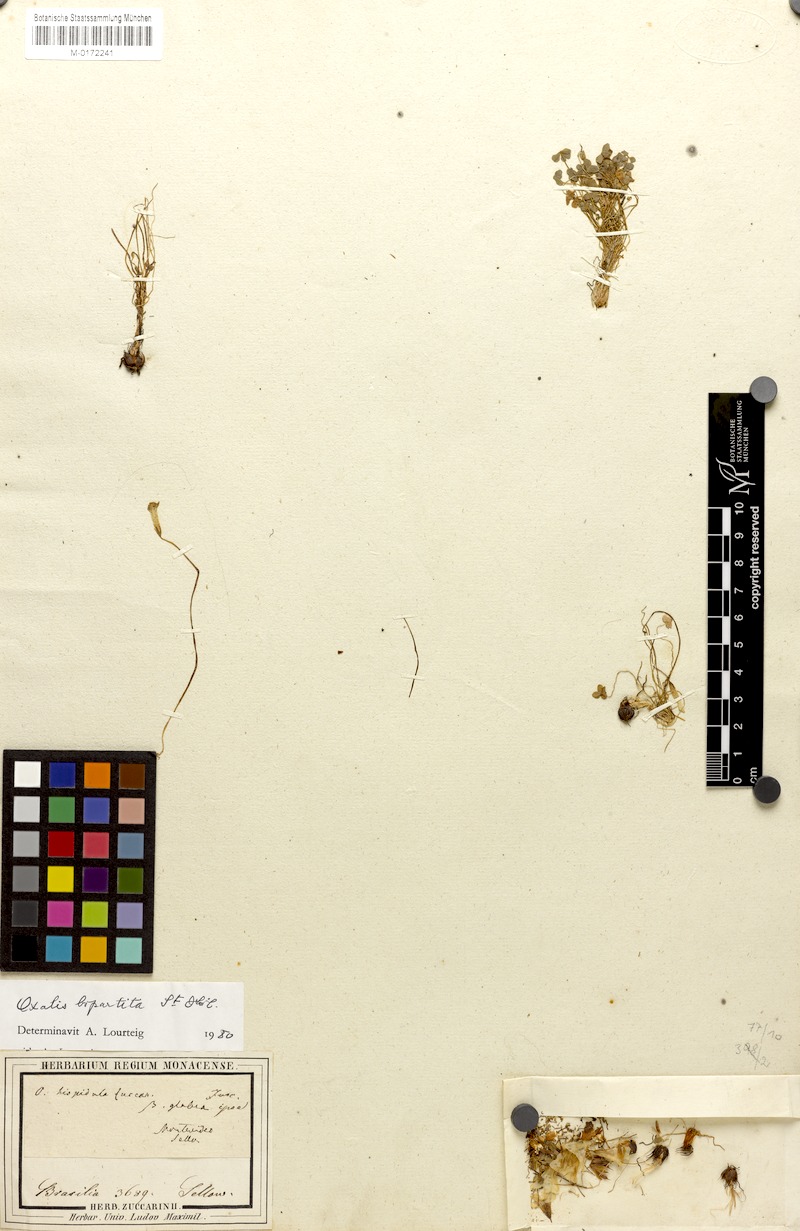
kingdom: Plantae
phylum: Tracheophyta
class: Magnoliopsida
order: Oxalidales
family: Oxalidaceae
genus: Oxalis
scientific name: Oxalis bipartita
